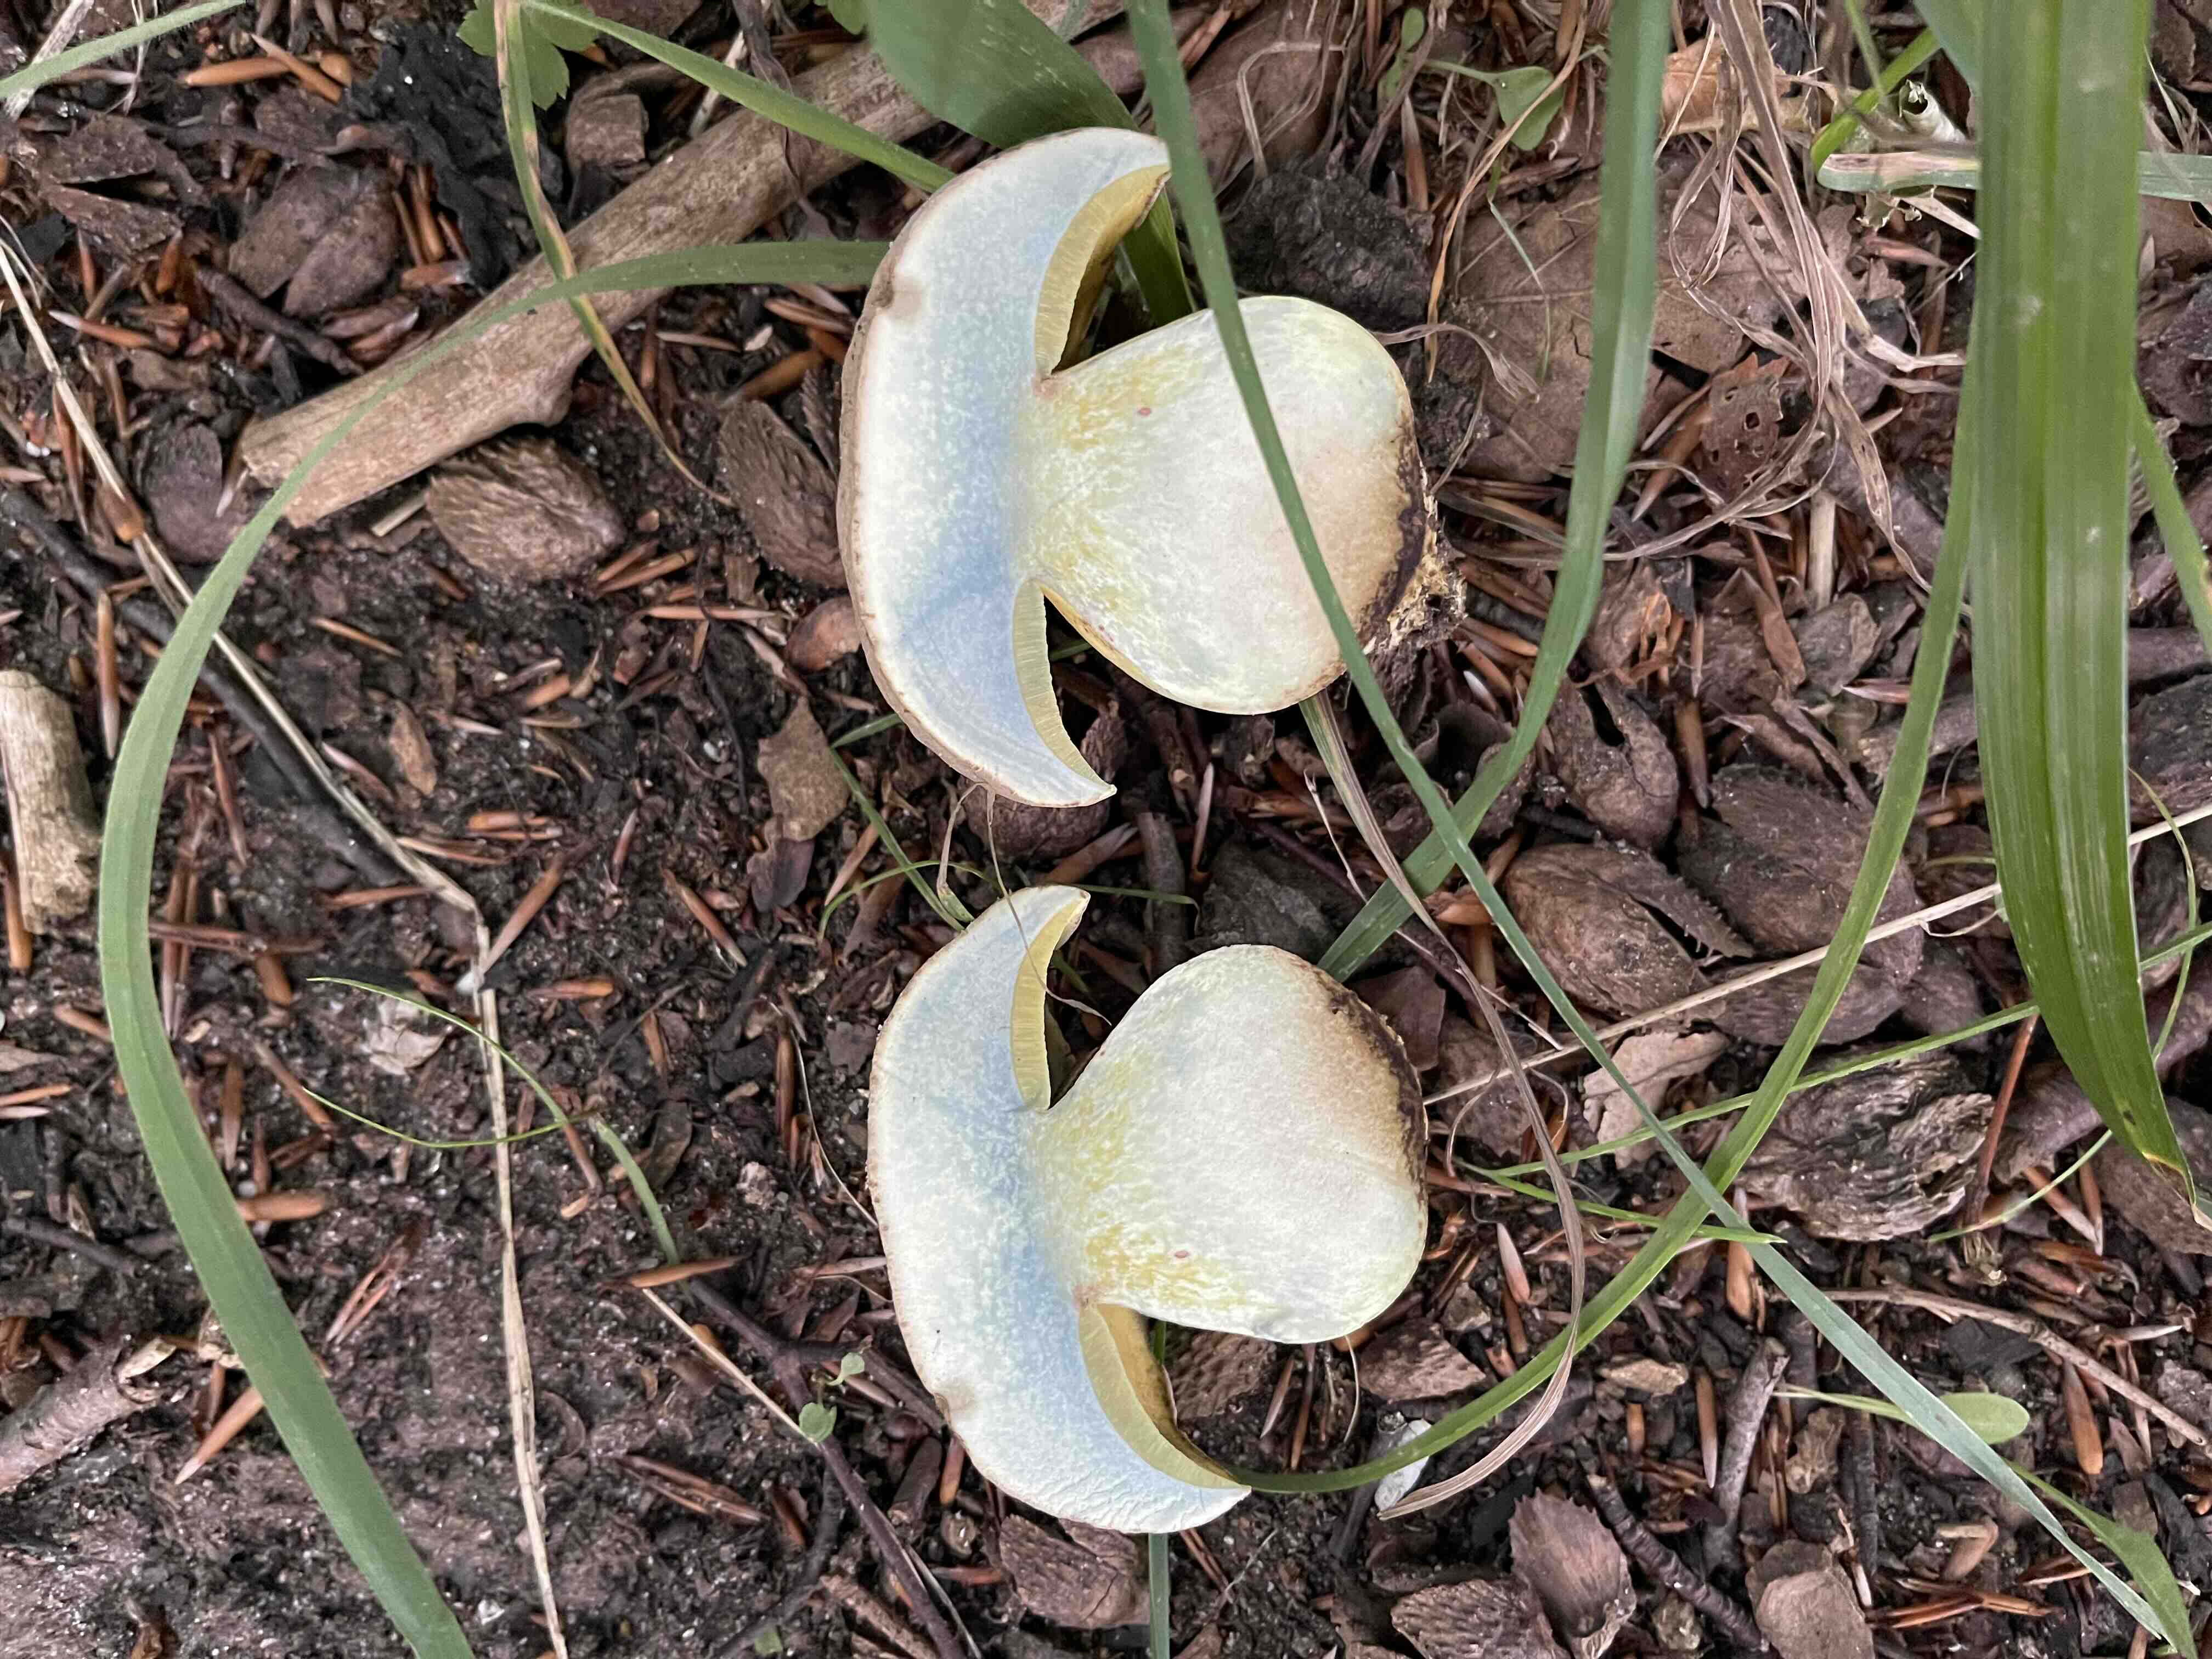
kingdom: Fungi
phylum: Basidiomycota
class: Agaricomycetes
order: Boletales
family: Boletaceae
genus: Caloboletus
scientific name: Caloboletus radicans
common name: rod-rørhat
